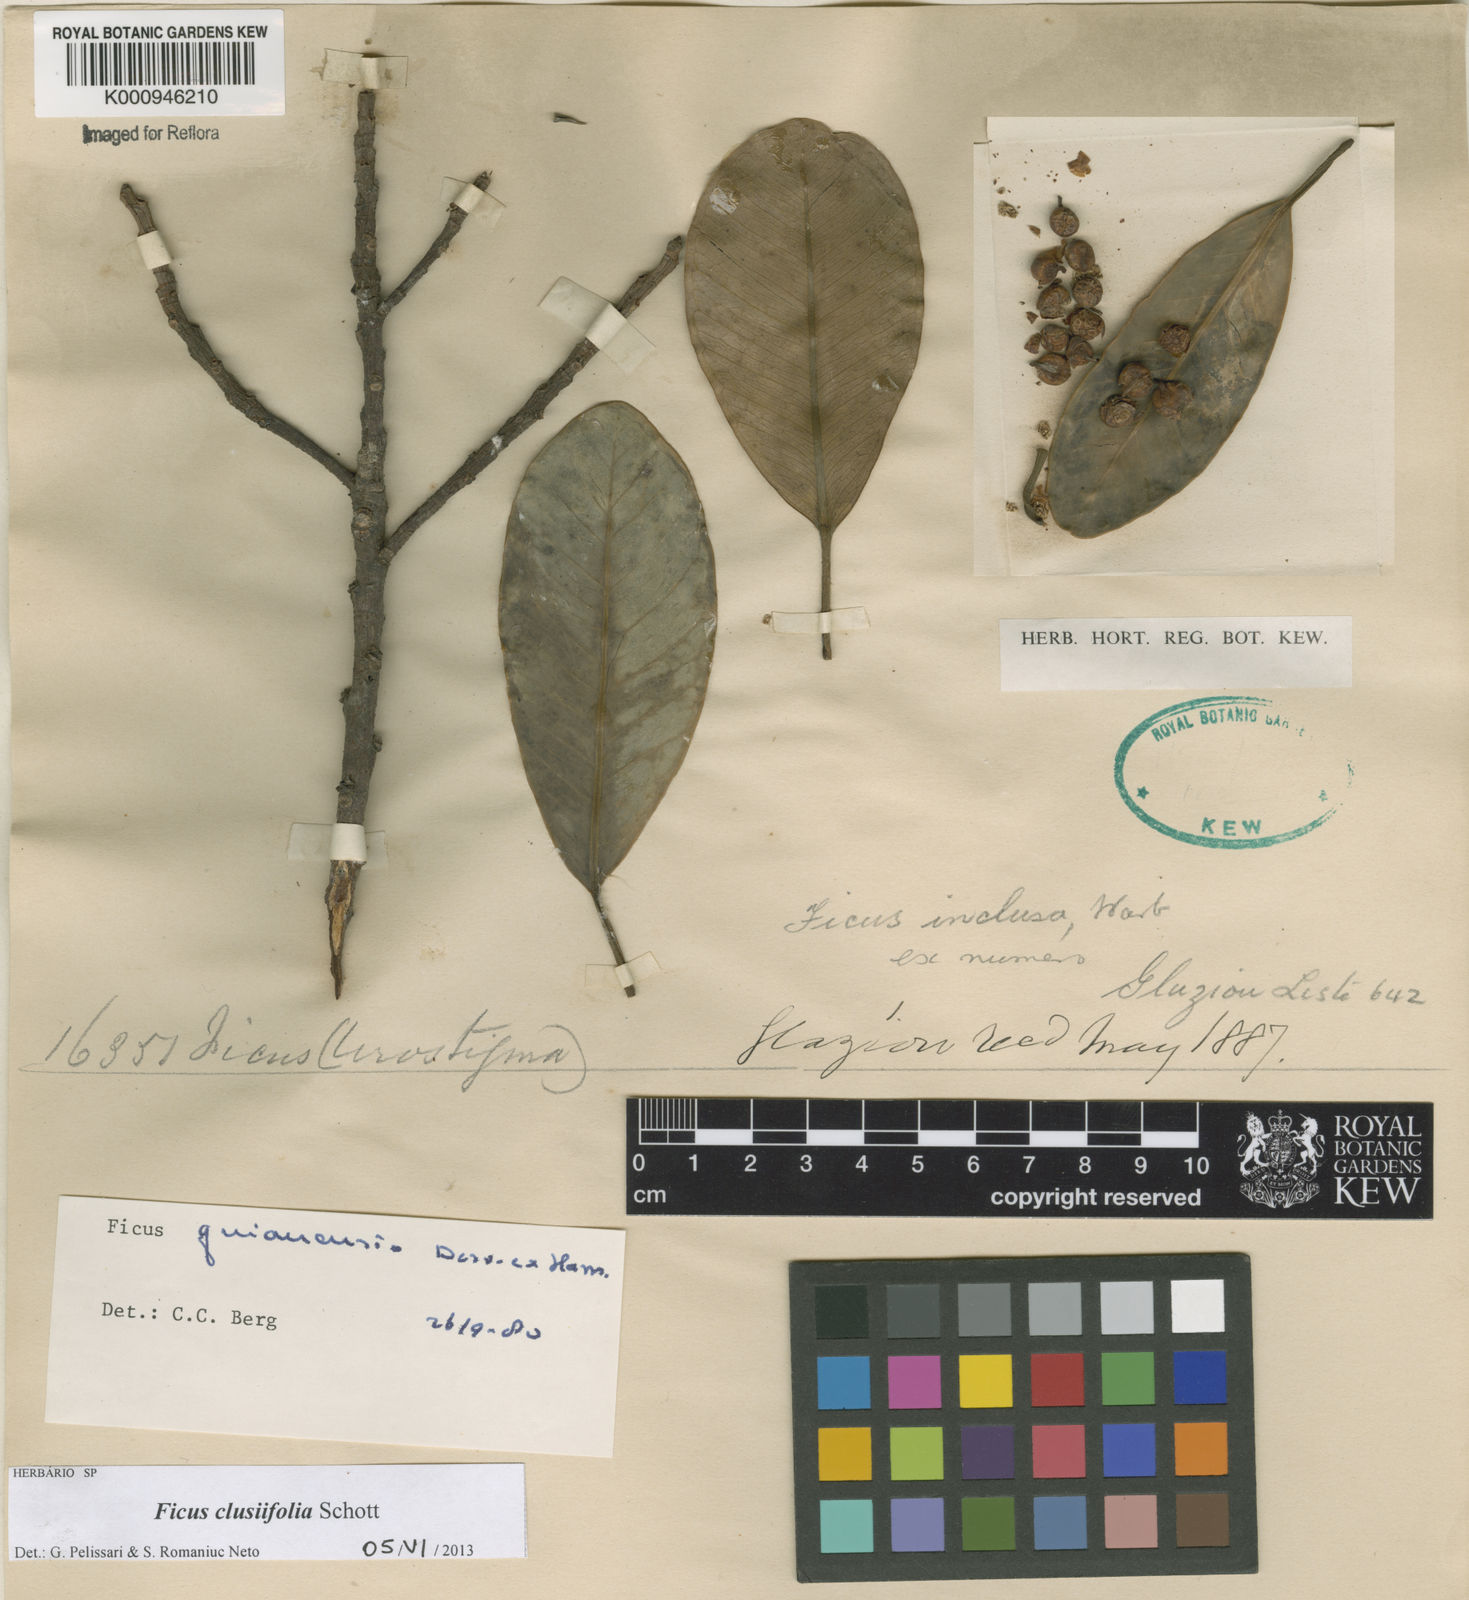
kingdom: Plantae
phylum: Tracheophyta
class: Magnoliopsida
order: Rosales
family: Moraceae
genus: Ficus
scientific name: Ficus americana
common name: Jamaican cherry fig
